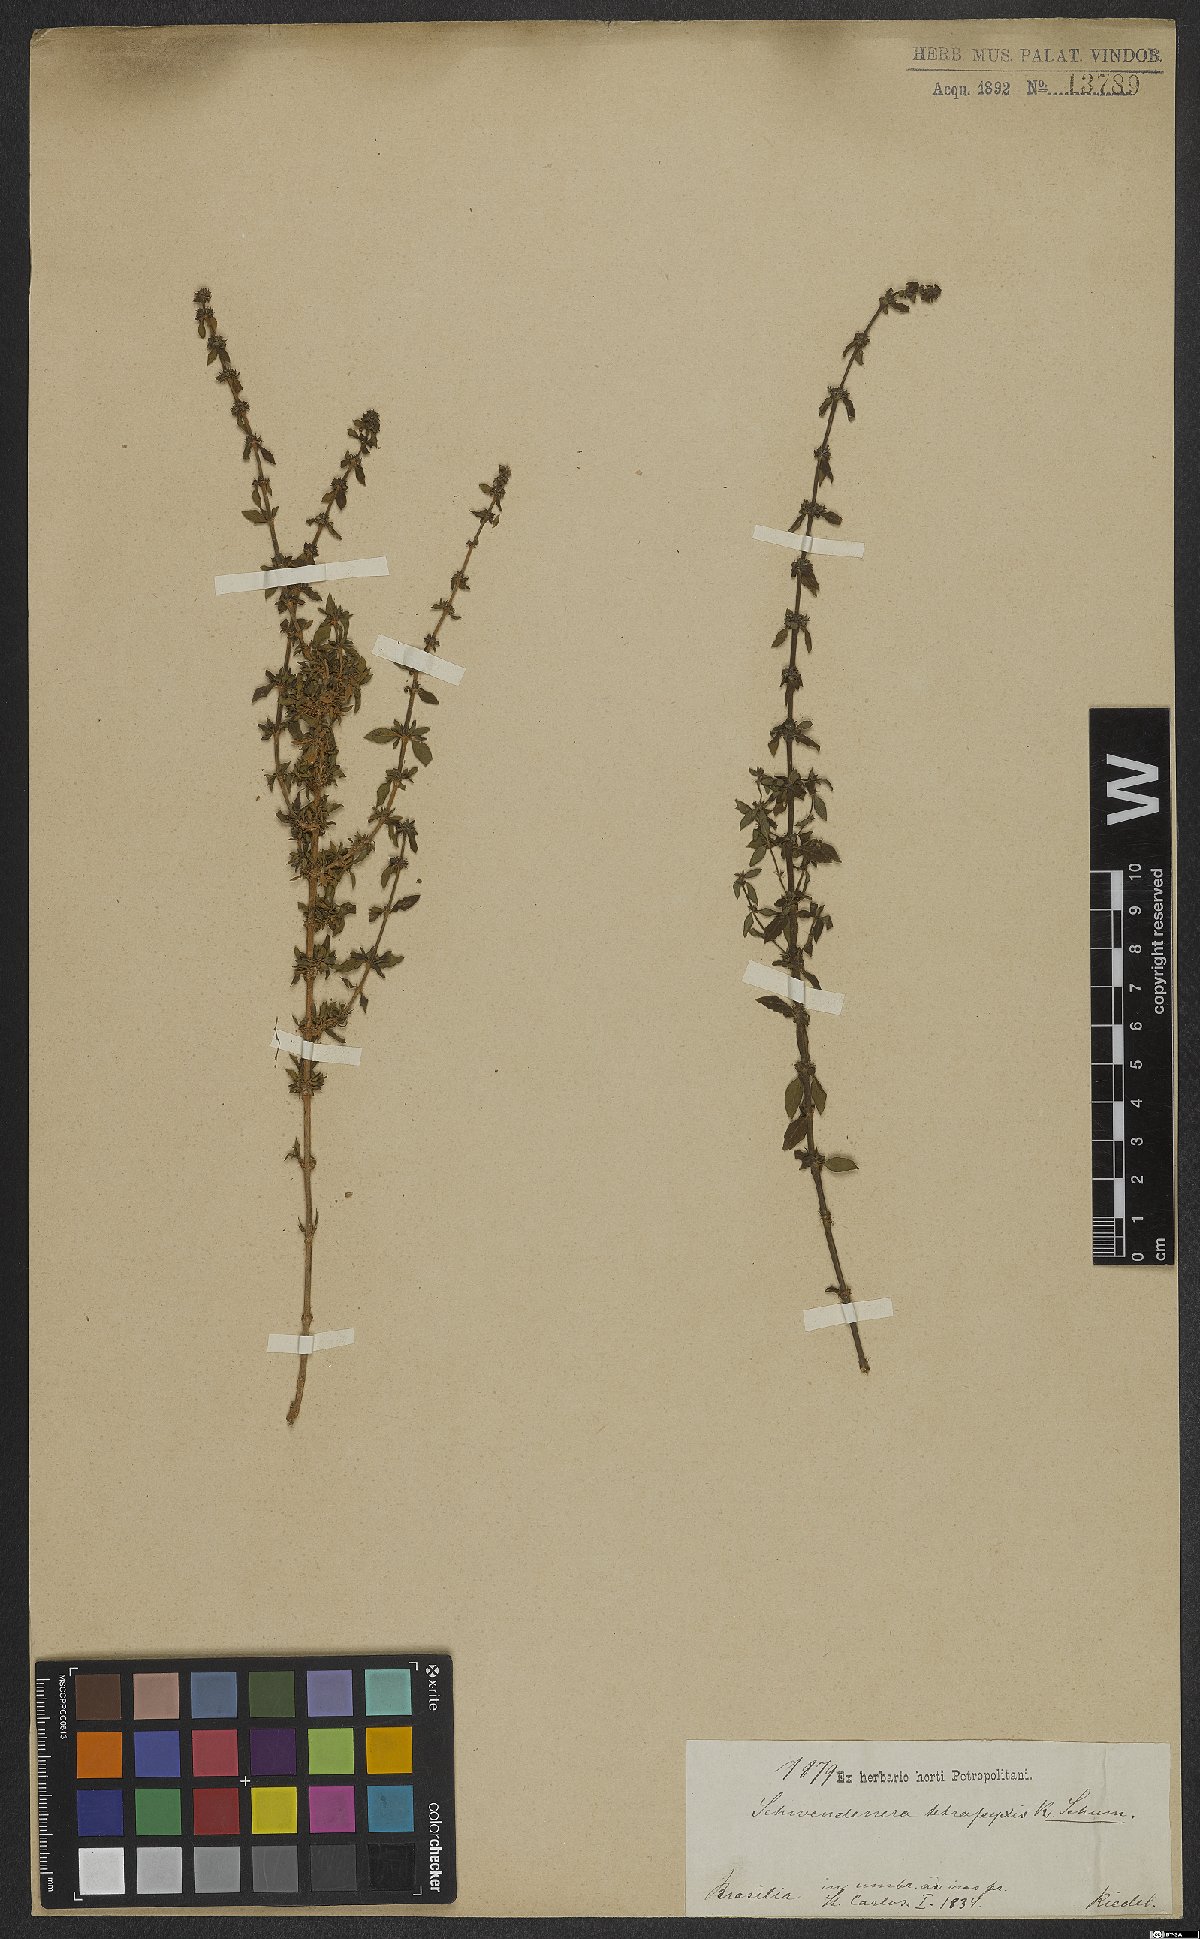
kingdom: Plantae
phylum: Tracheophyta
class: Magnoliopsida
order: Gentianales
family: Rubiaceae
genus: Schwendenera
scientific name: Schwendenera tetrapyxis
